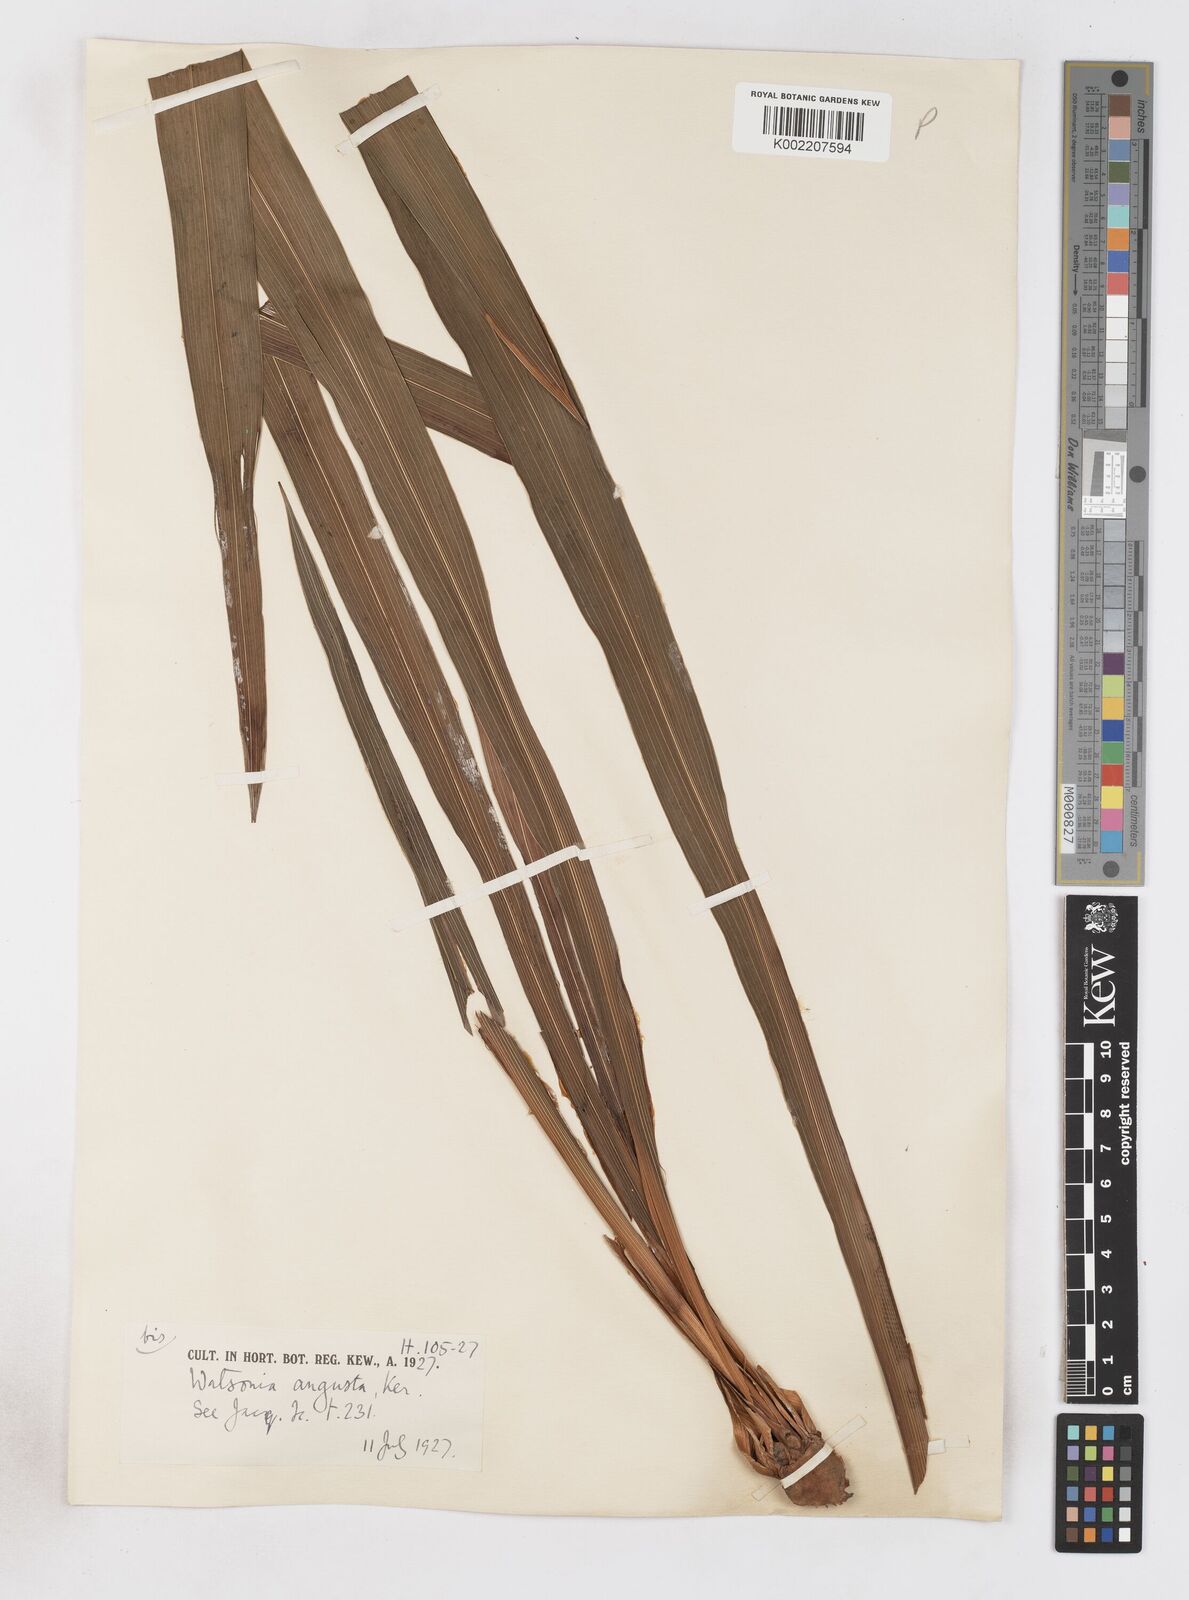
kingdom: Plantae
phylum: Tracheophyta
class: Liliopsida
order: Asparagales
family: Iridaceae
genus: Watsonia
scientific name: Watsonia angusta
